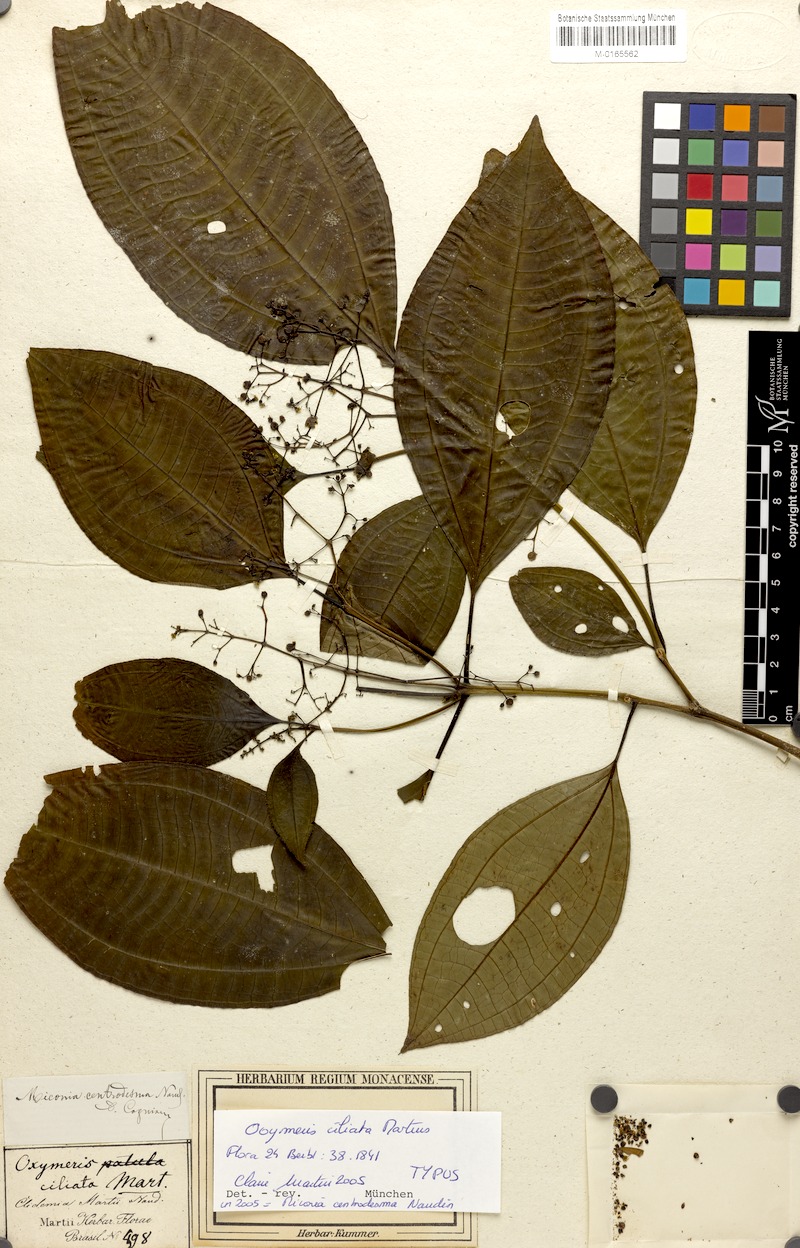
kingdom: Plantae
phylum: Tracheophyta
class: Magnoliopsida
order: Myrtales
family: Melastomataceae
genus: Miconia
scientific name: Miconia centrodesma
